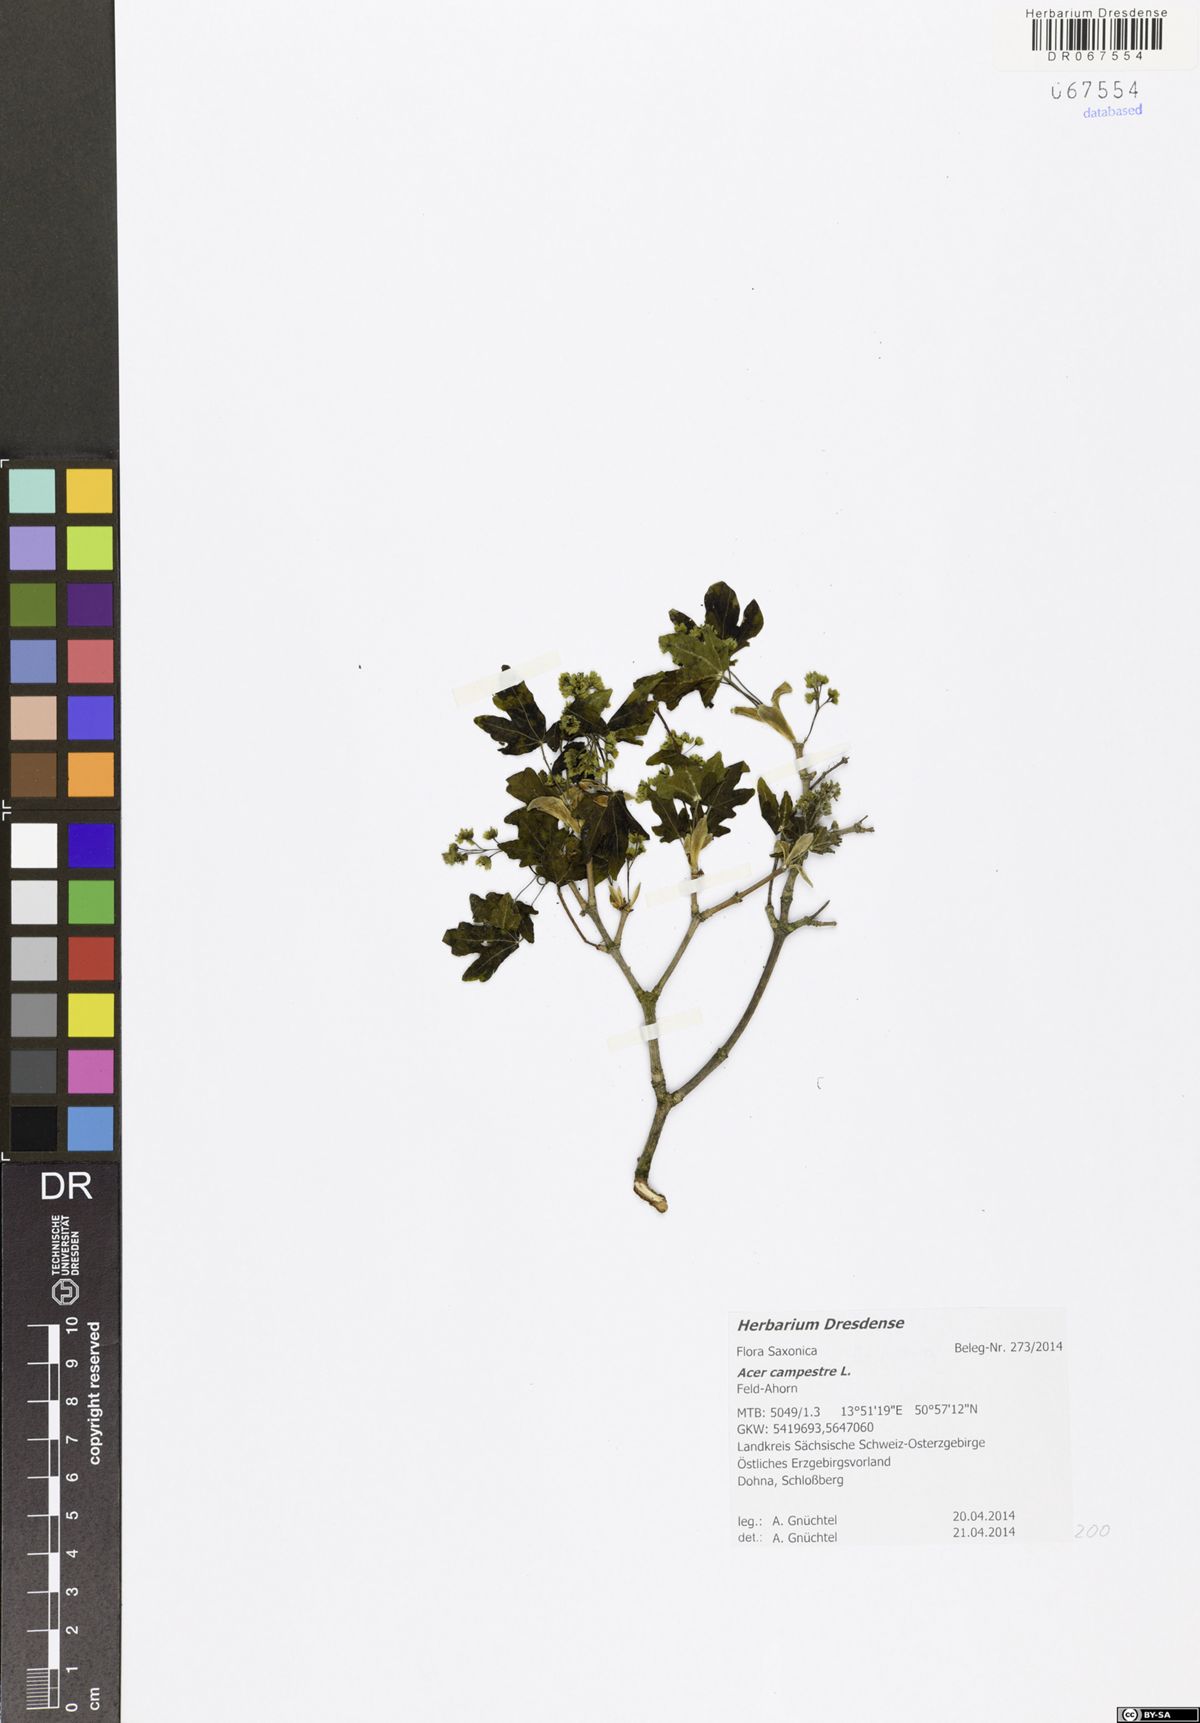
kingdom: Plantae
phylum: Tracheophyta
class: Magnoliopsida
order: Sapindales
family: Sapindaceae
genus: Acer
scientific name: Acer campestre
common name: Field maple
